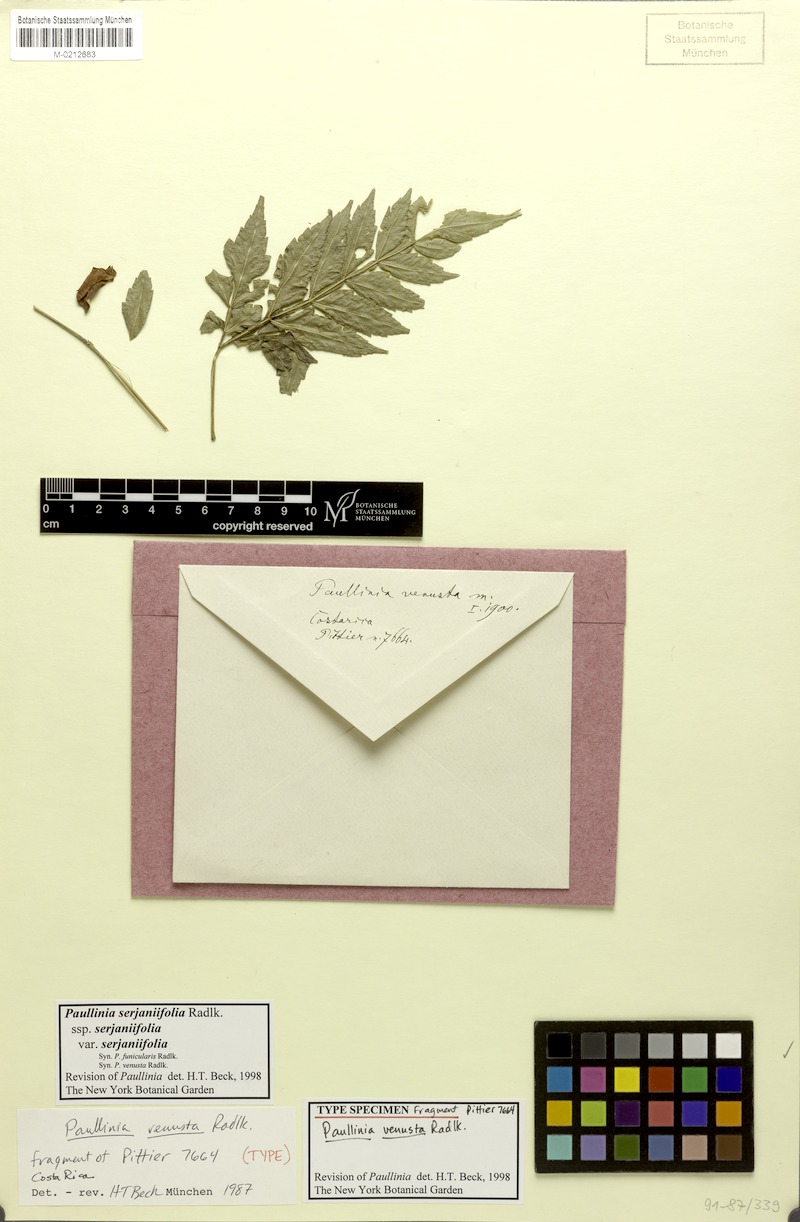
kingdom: Plantae
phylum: Tracheophyta
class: Magnoliopsida
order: Sapindales
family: Sapindaceae
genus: Paullinia
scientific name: Paullinia serjaniifolia
